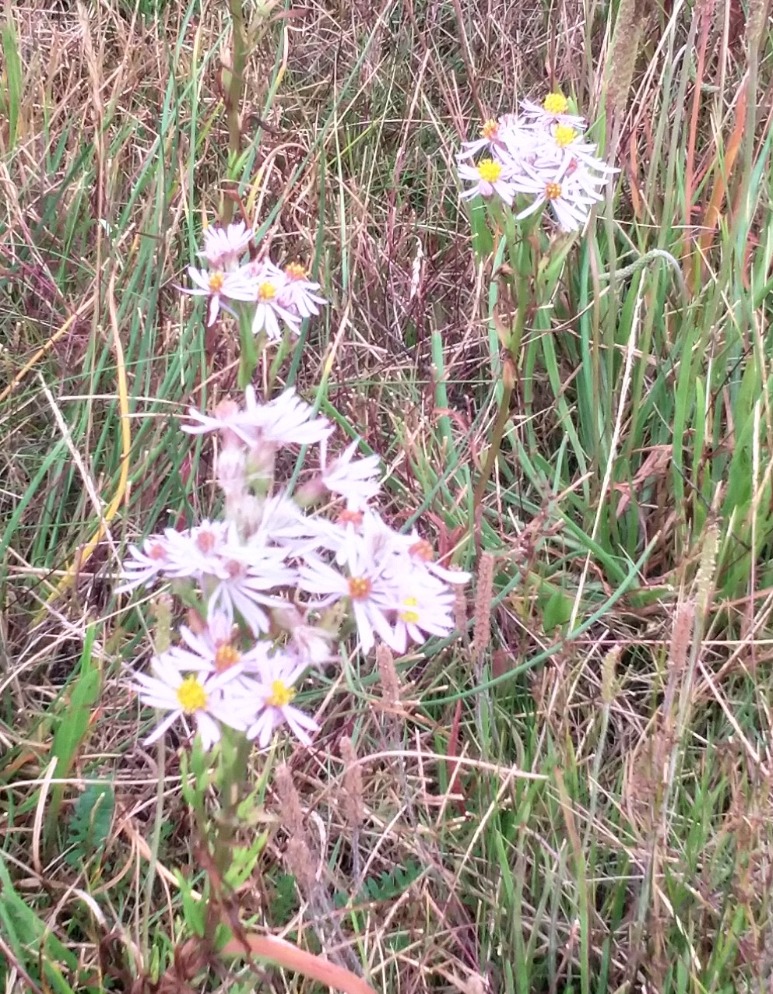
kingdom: Plantae
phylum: Tracheophyta
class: Magnoliopsida
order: Asterales
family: Asteraceae
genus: Tripolium
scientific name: Tripolium pannonicum
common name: Strandasters
